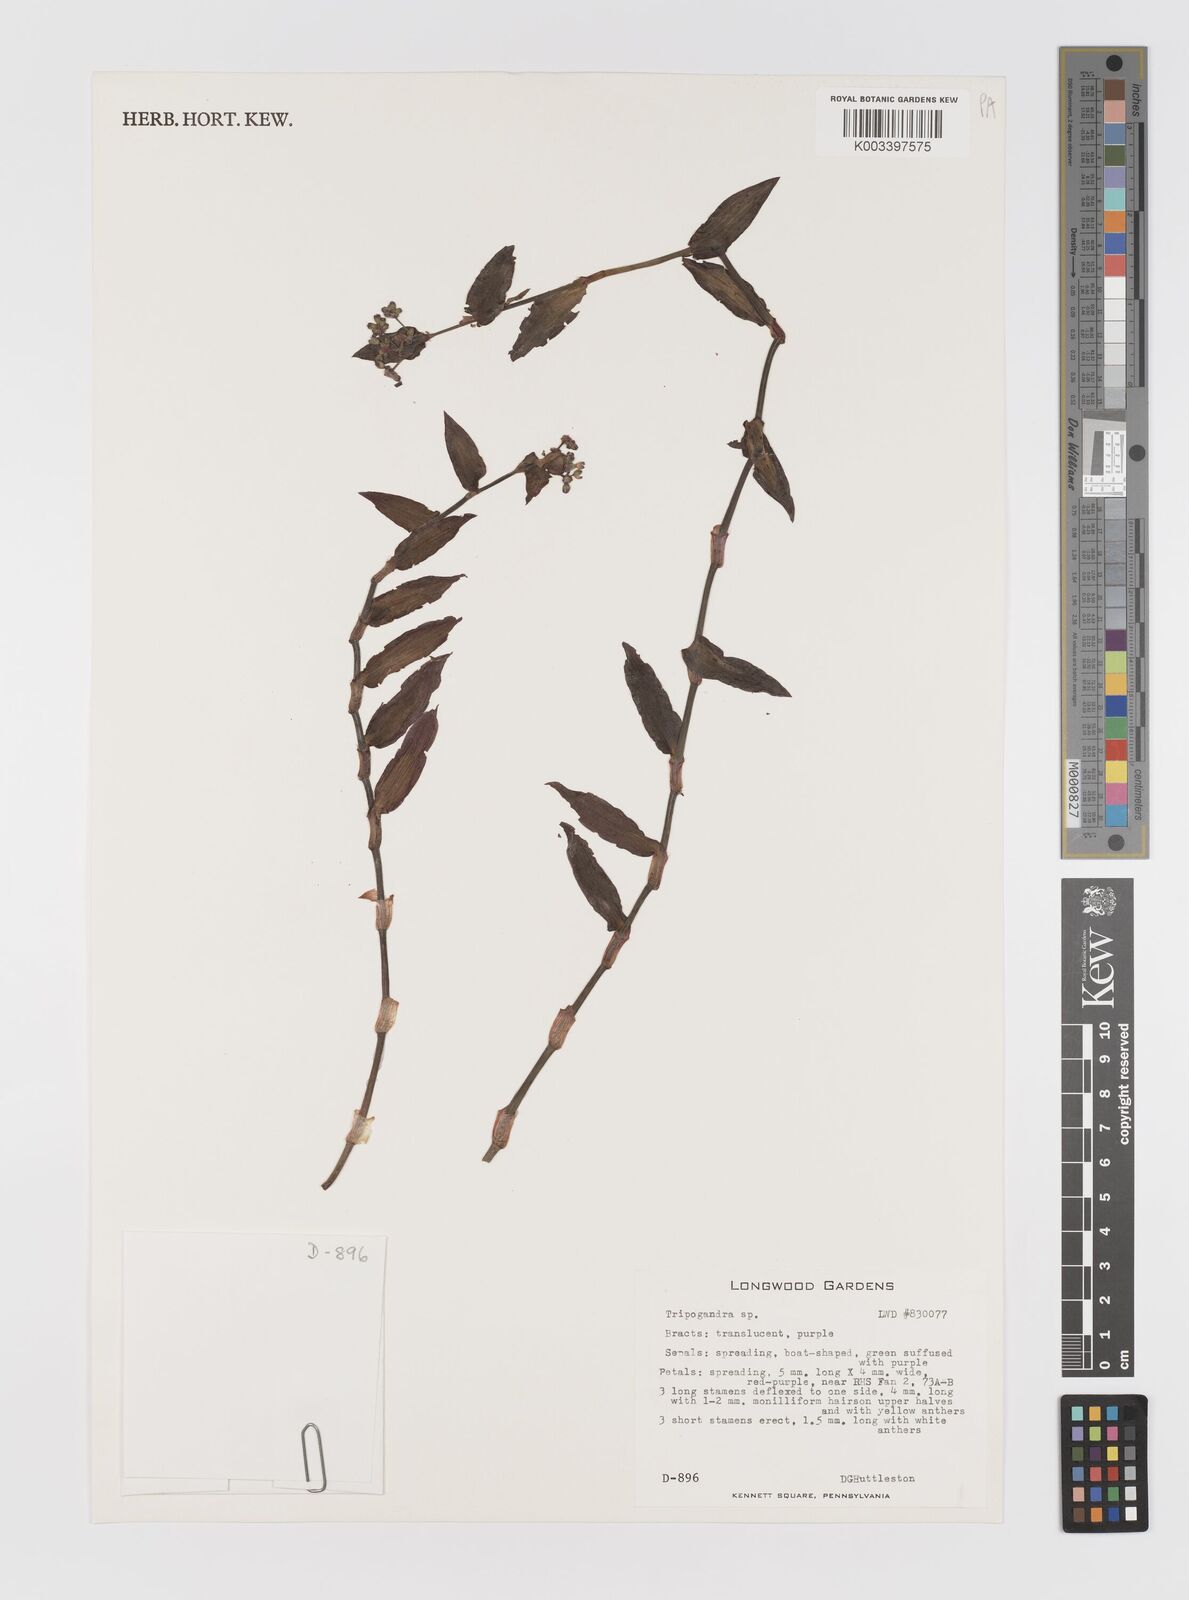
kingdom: Plantae
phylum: Tracheophyta
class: Liliopsida
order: Commelinales
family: Commelinaceae
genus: Callisia
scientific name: Callisia
